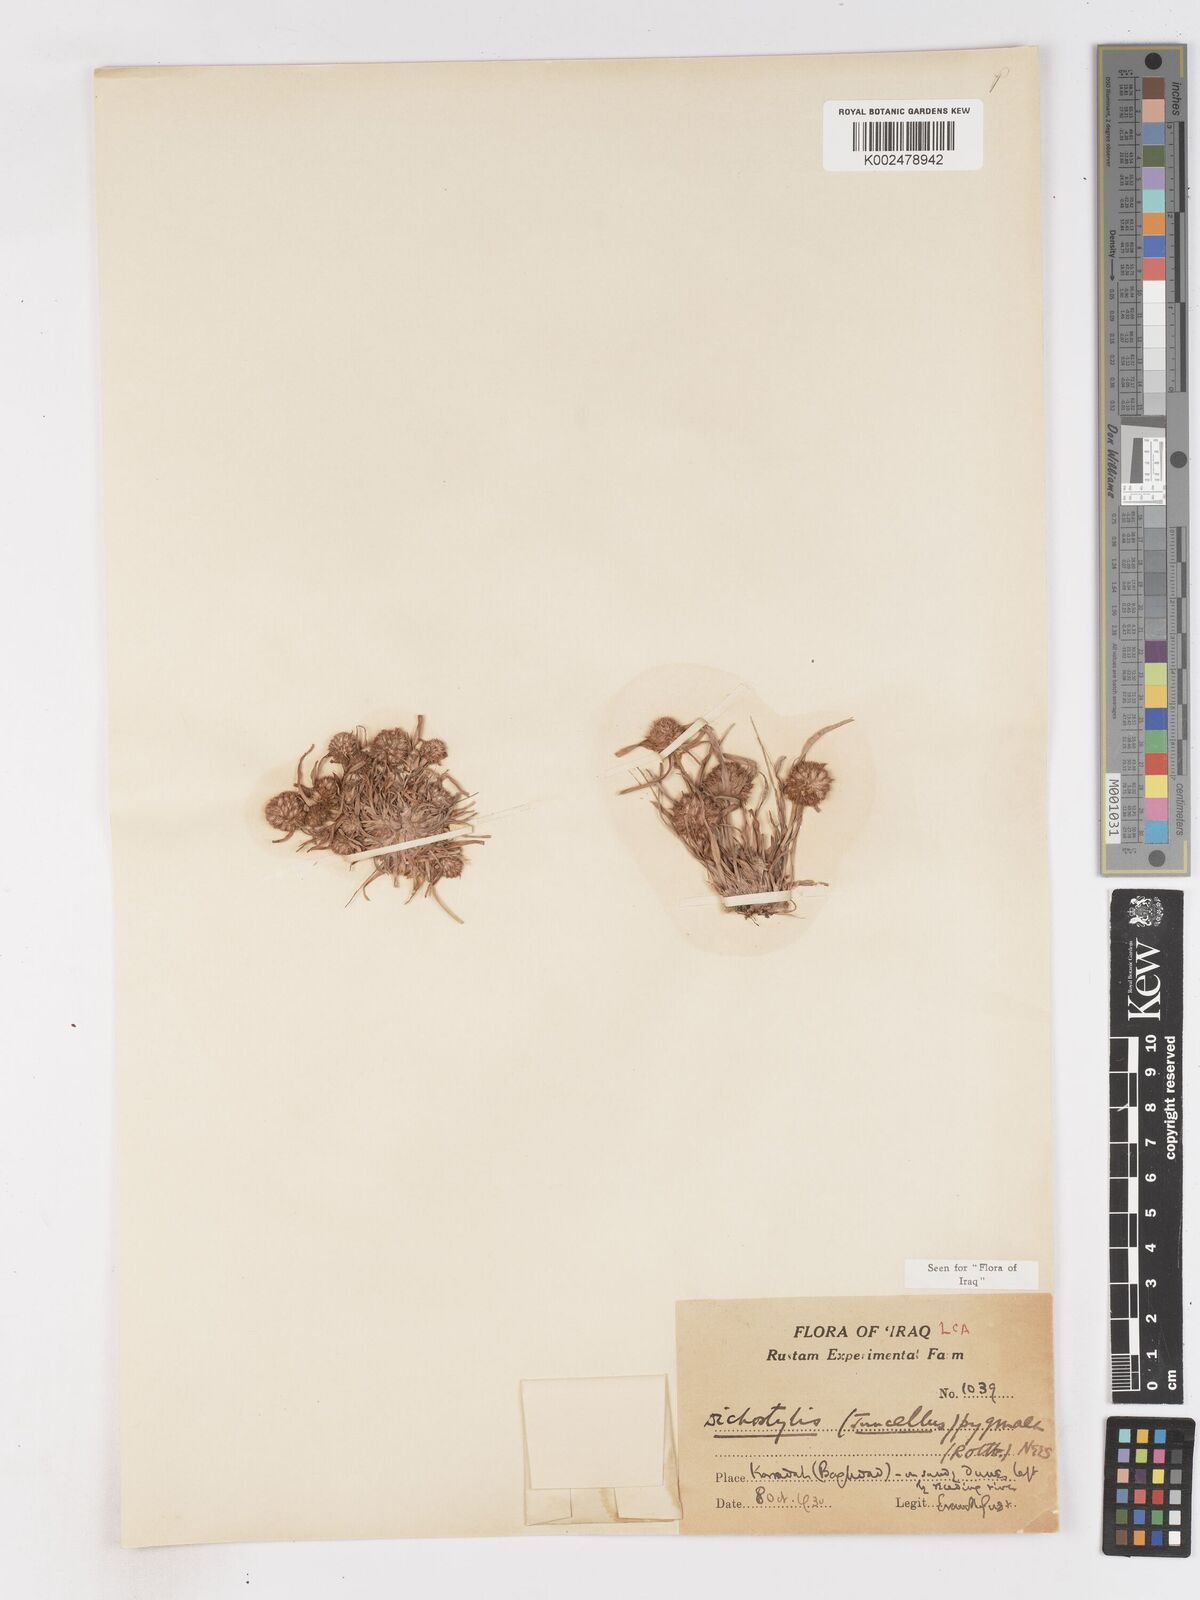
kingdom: Plantae
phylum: Tracheophyta
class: Liliopsida
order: Poales
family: Cyperaceae
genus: Cyperus
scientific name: Cyperus michelianus
